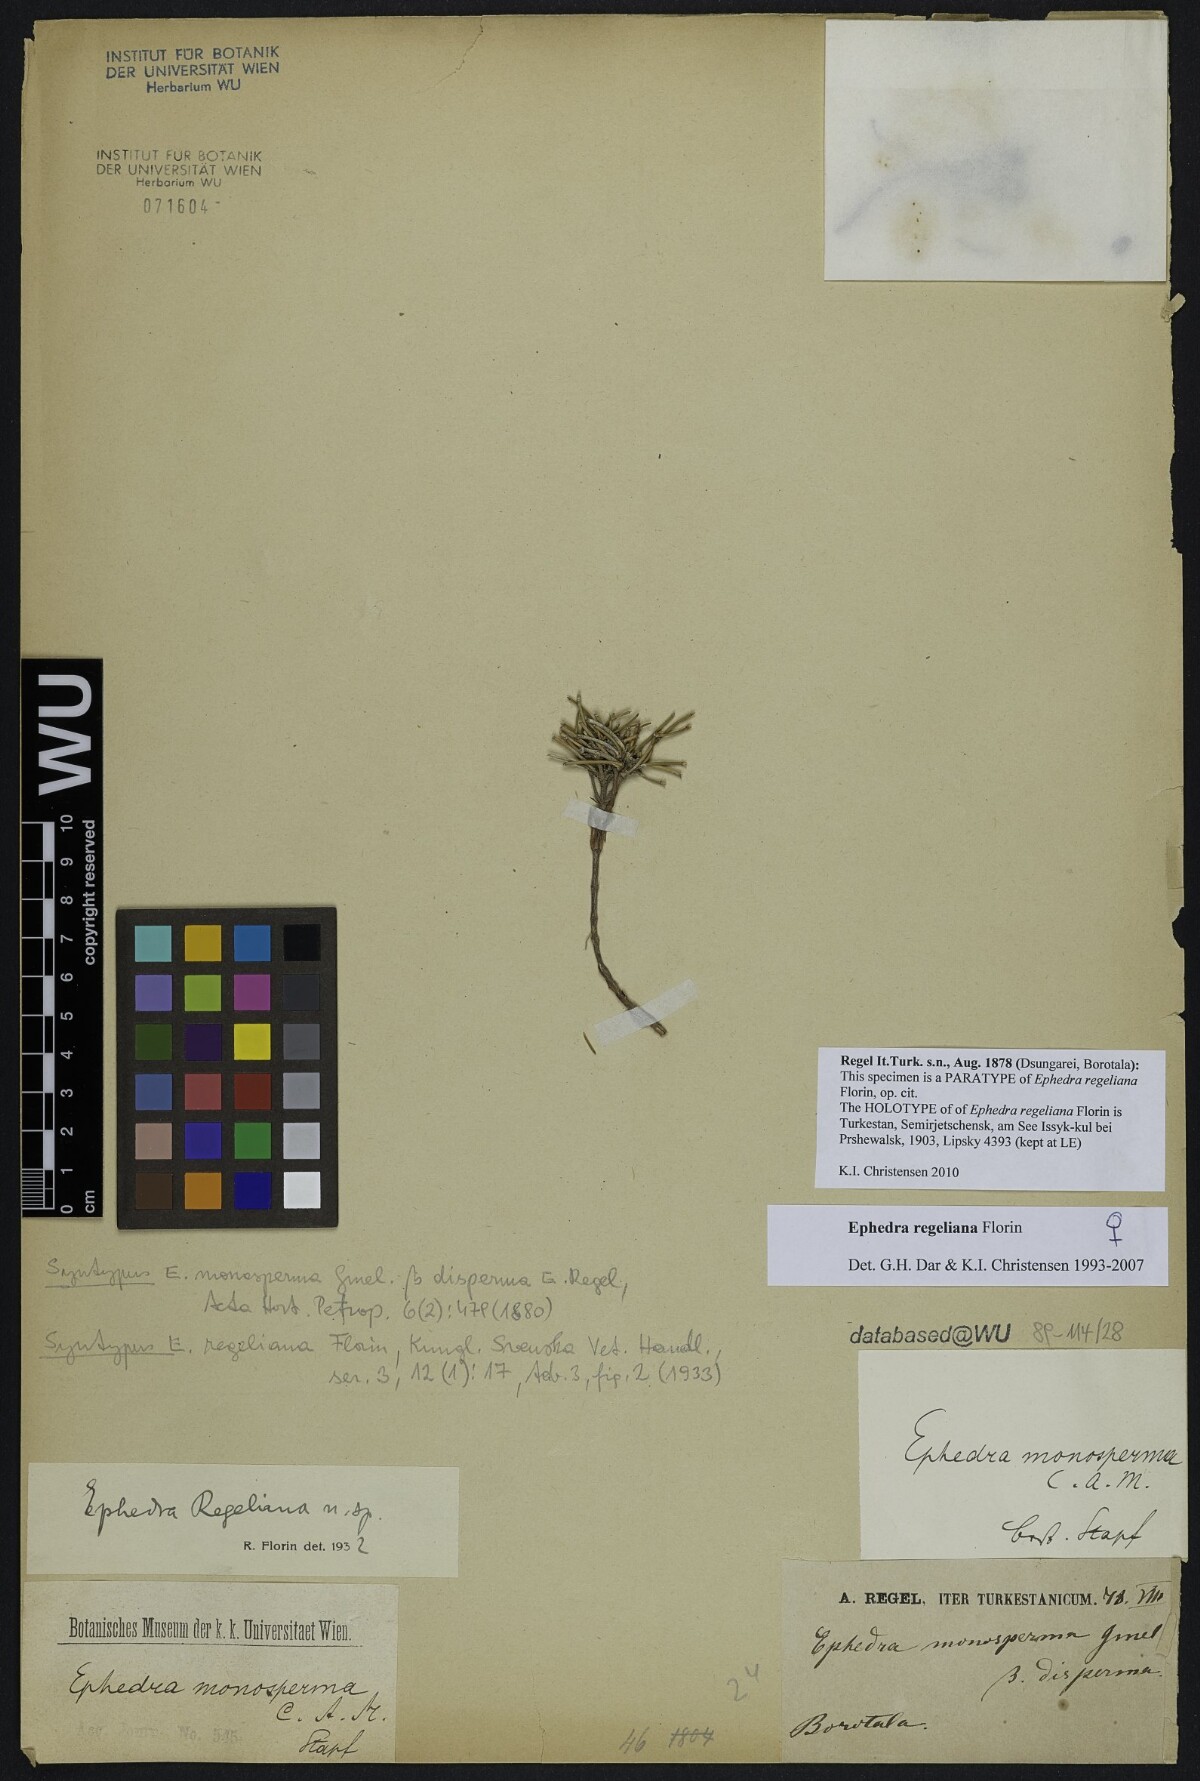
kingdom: Plantae
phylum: Tracheophyta
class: Gnetopsida
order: Ephedrales
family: Ephedraceae
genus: Ephedra
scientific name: Ephedra regeliana
